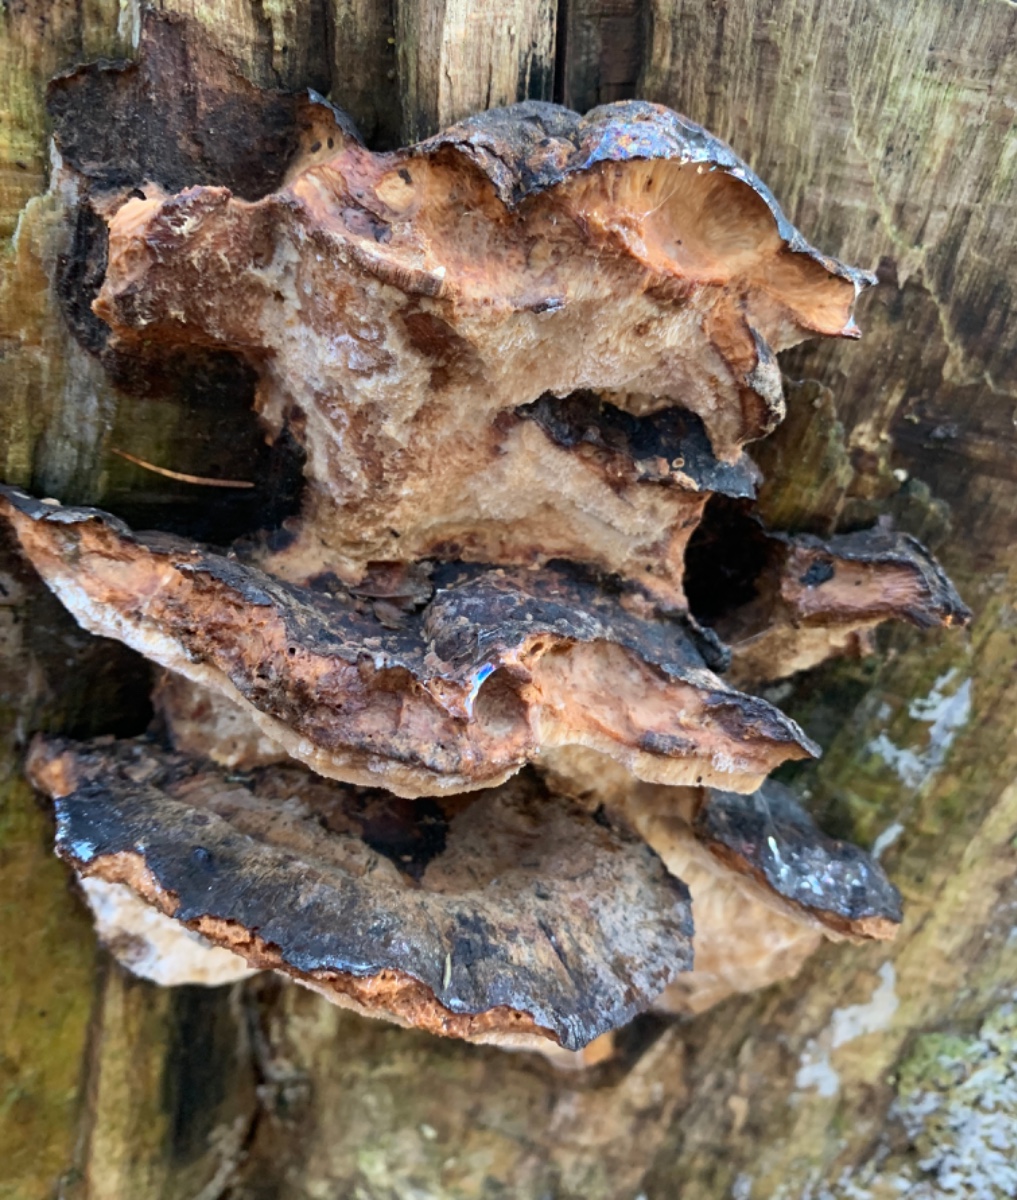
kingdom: Fungi
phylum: Basidiomycota
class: Agaricomycetes
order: Polyporales
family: Ischnodermataceae
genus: Ischnoderma
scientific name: Ischnoderma resinosum
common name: løv-tjæreporesvamp
